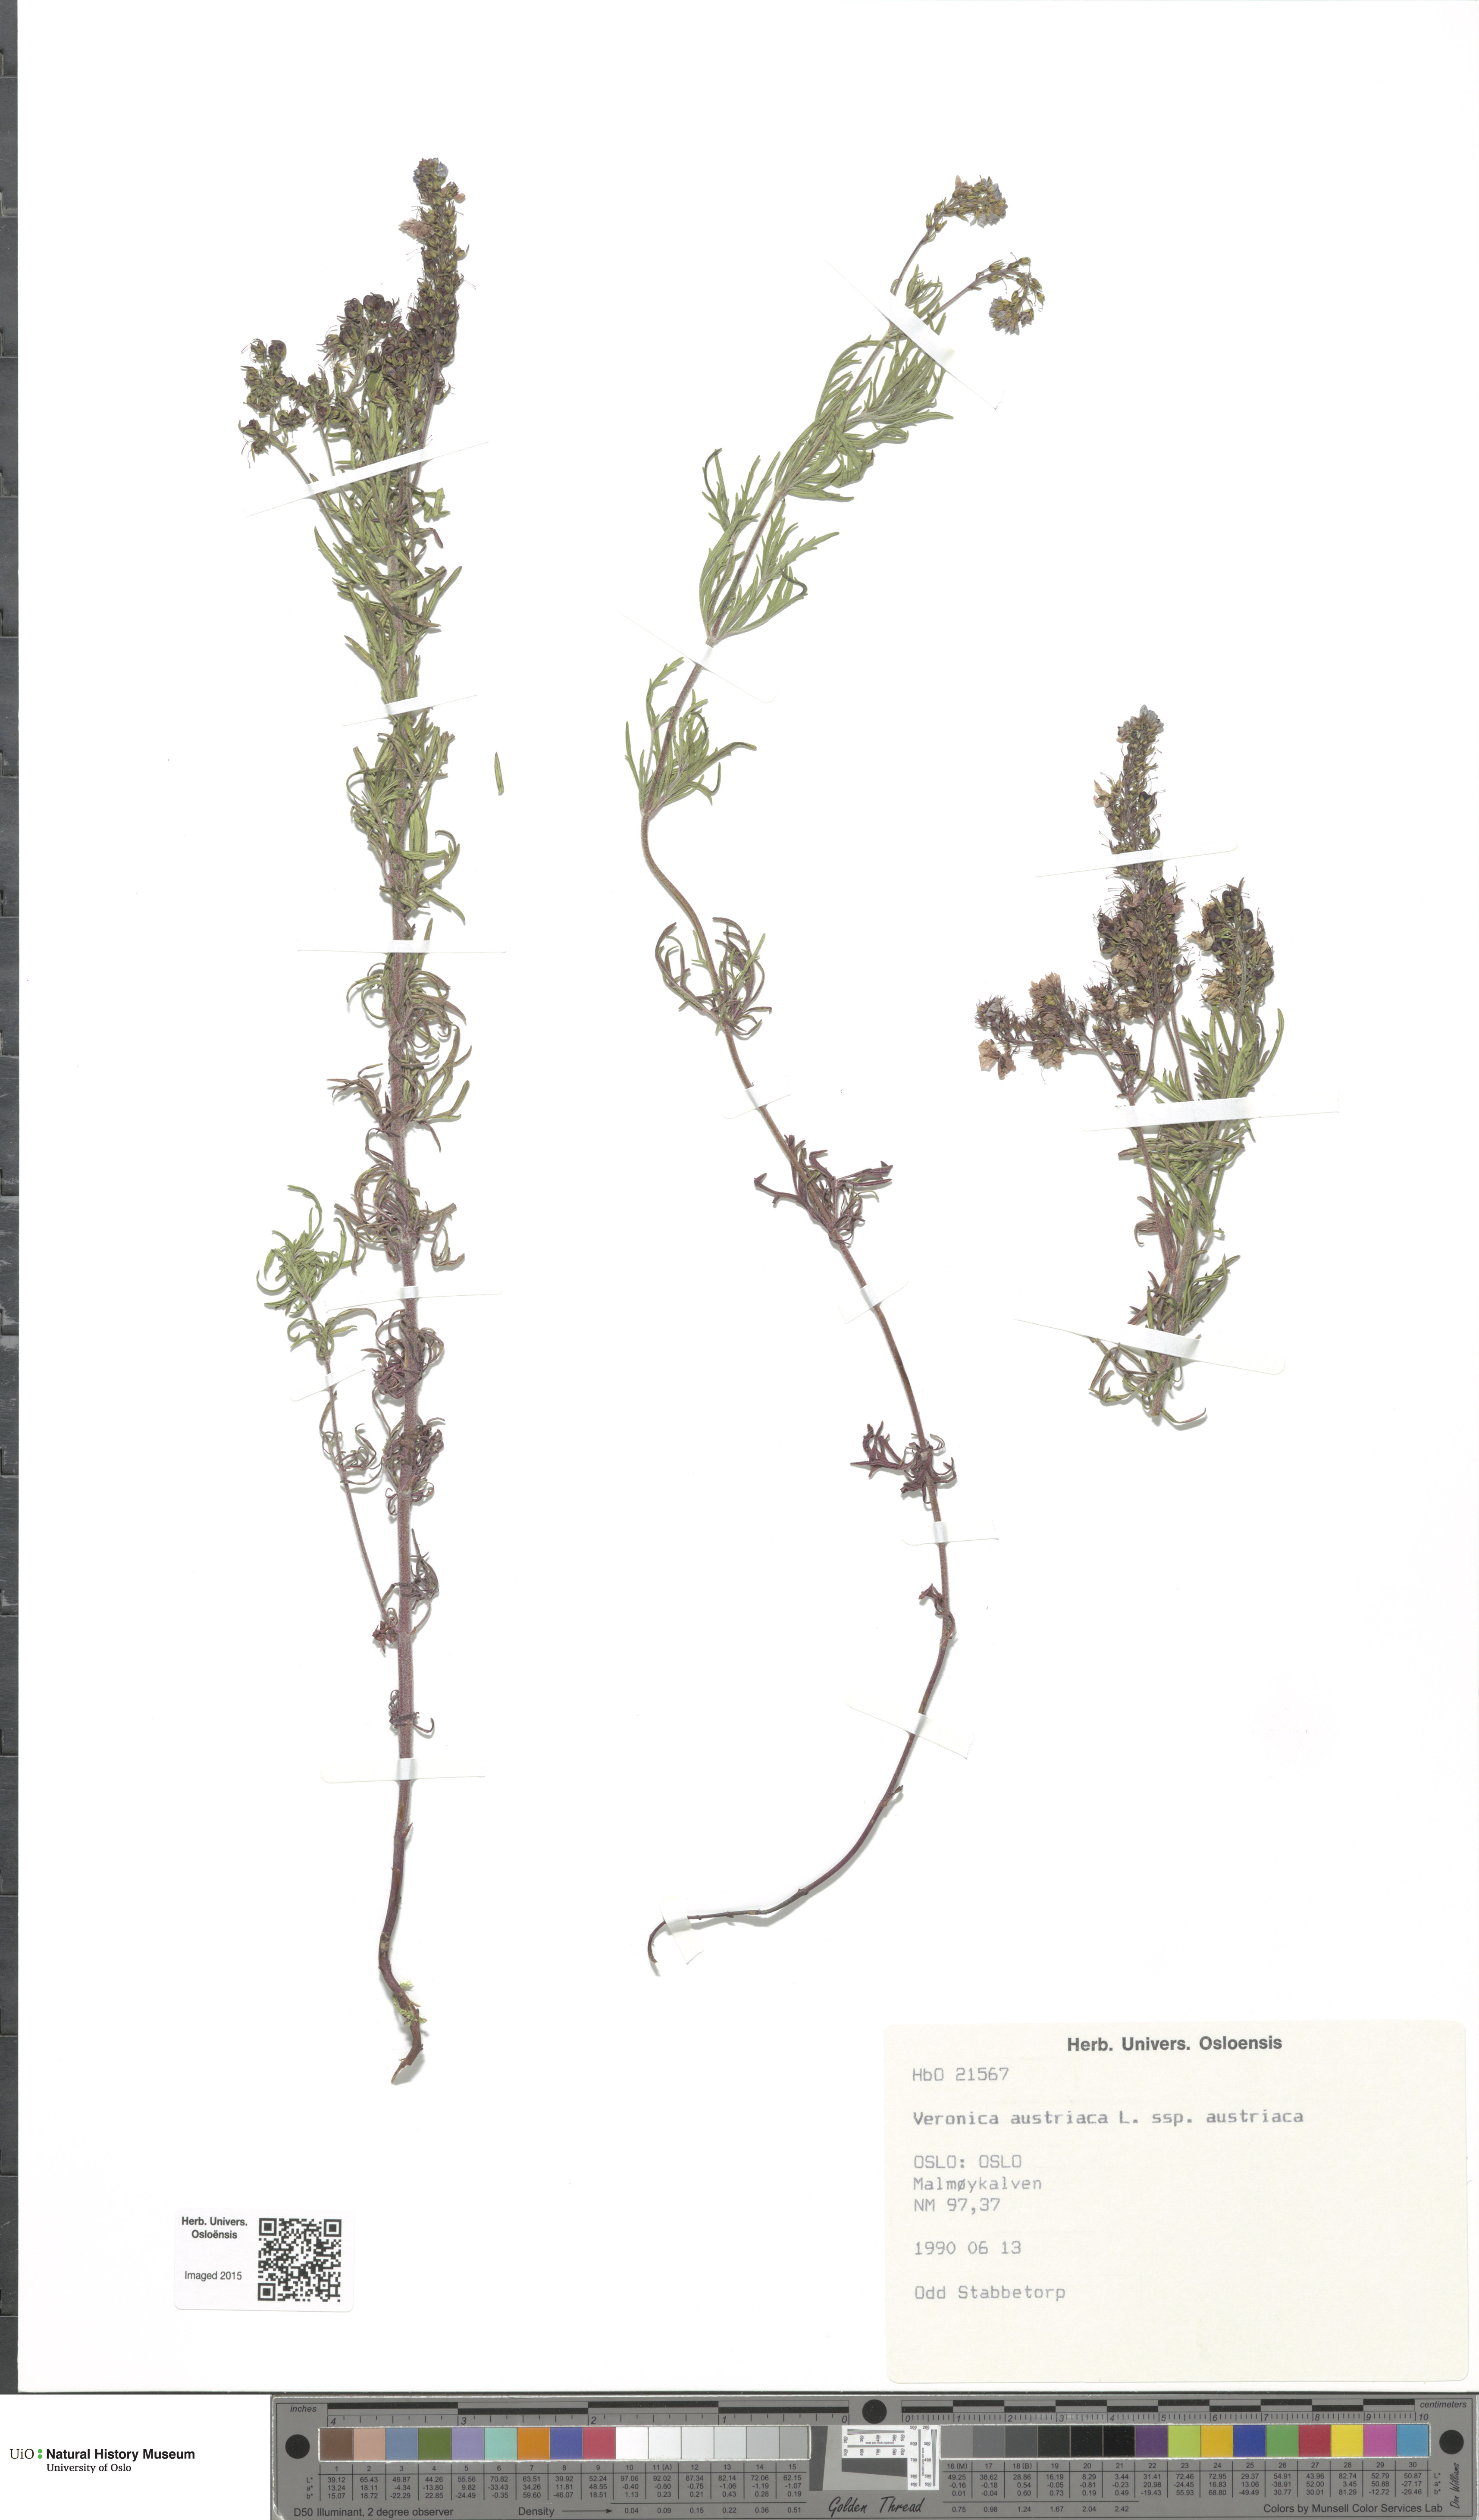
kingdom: Plantae
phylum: Tracheophyta
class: Magnoliopsida
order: Lamiales
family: Plantaginaceae
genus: Veronica
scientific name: Veronica austriaca
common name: Large speedwell
